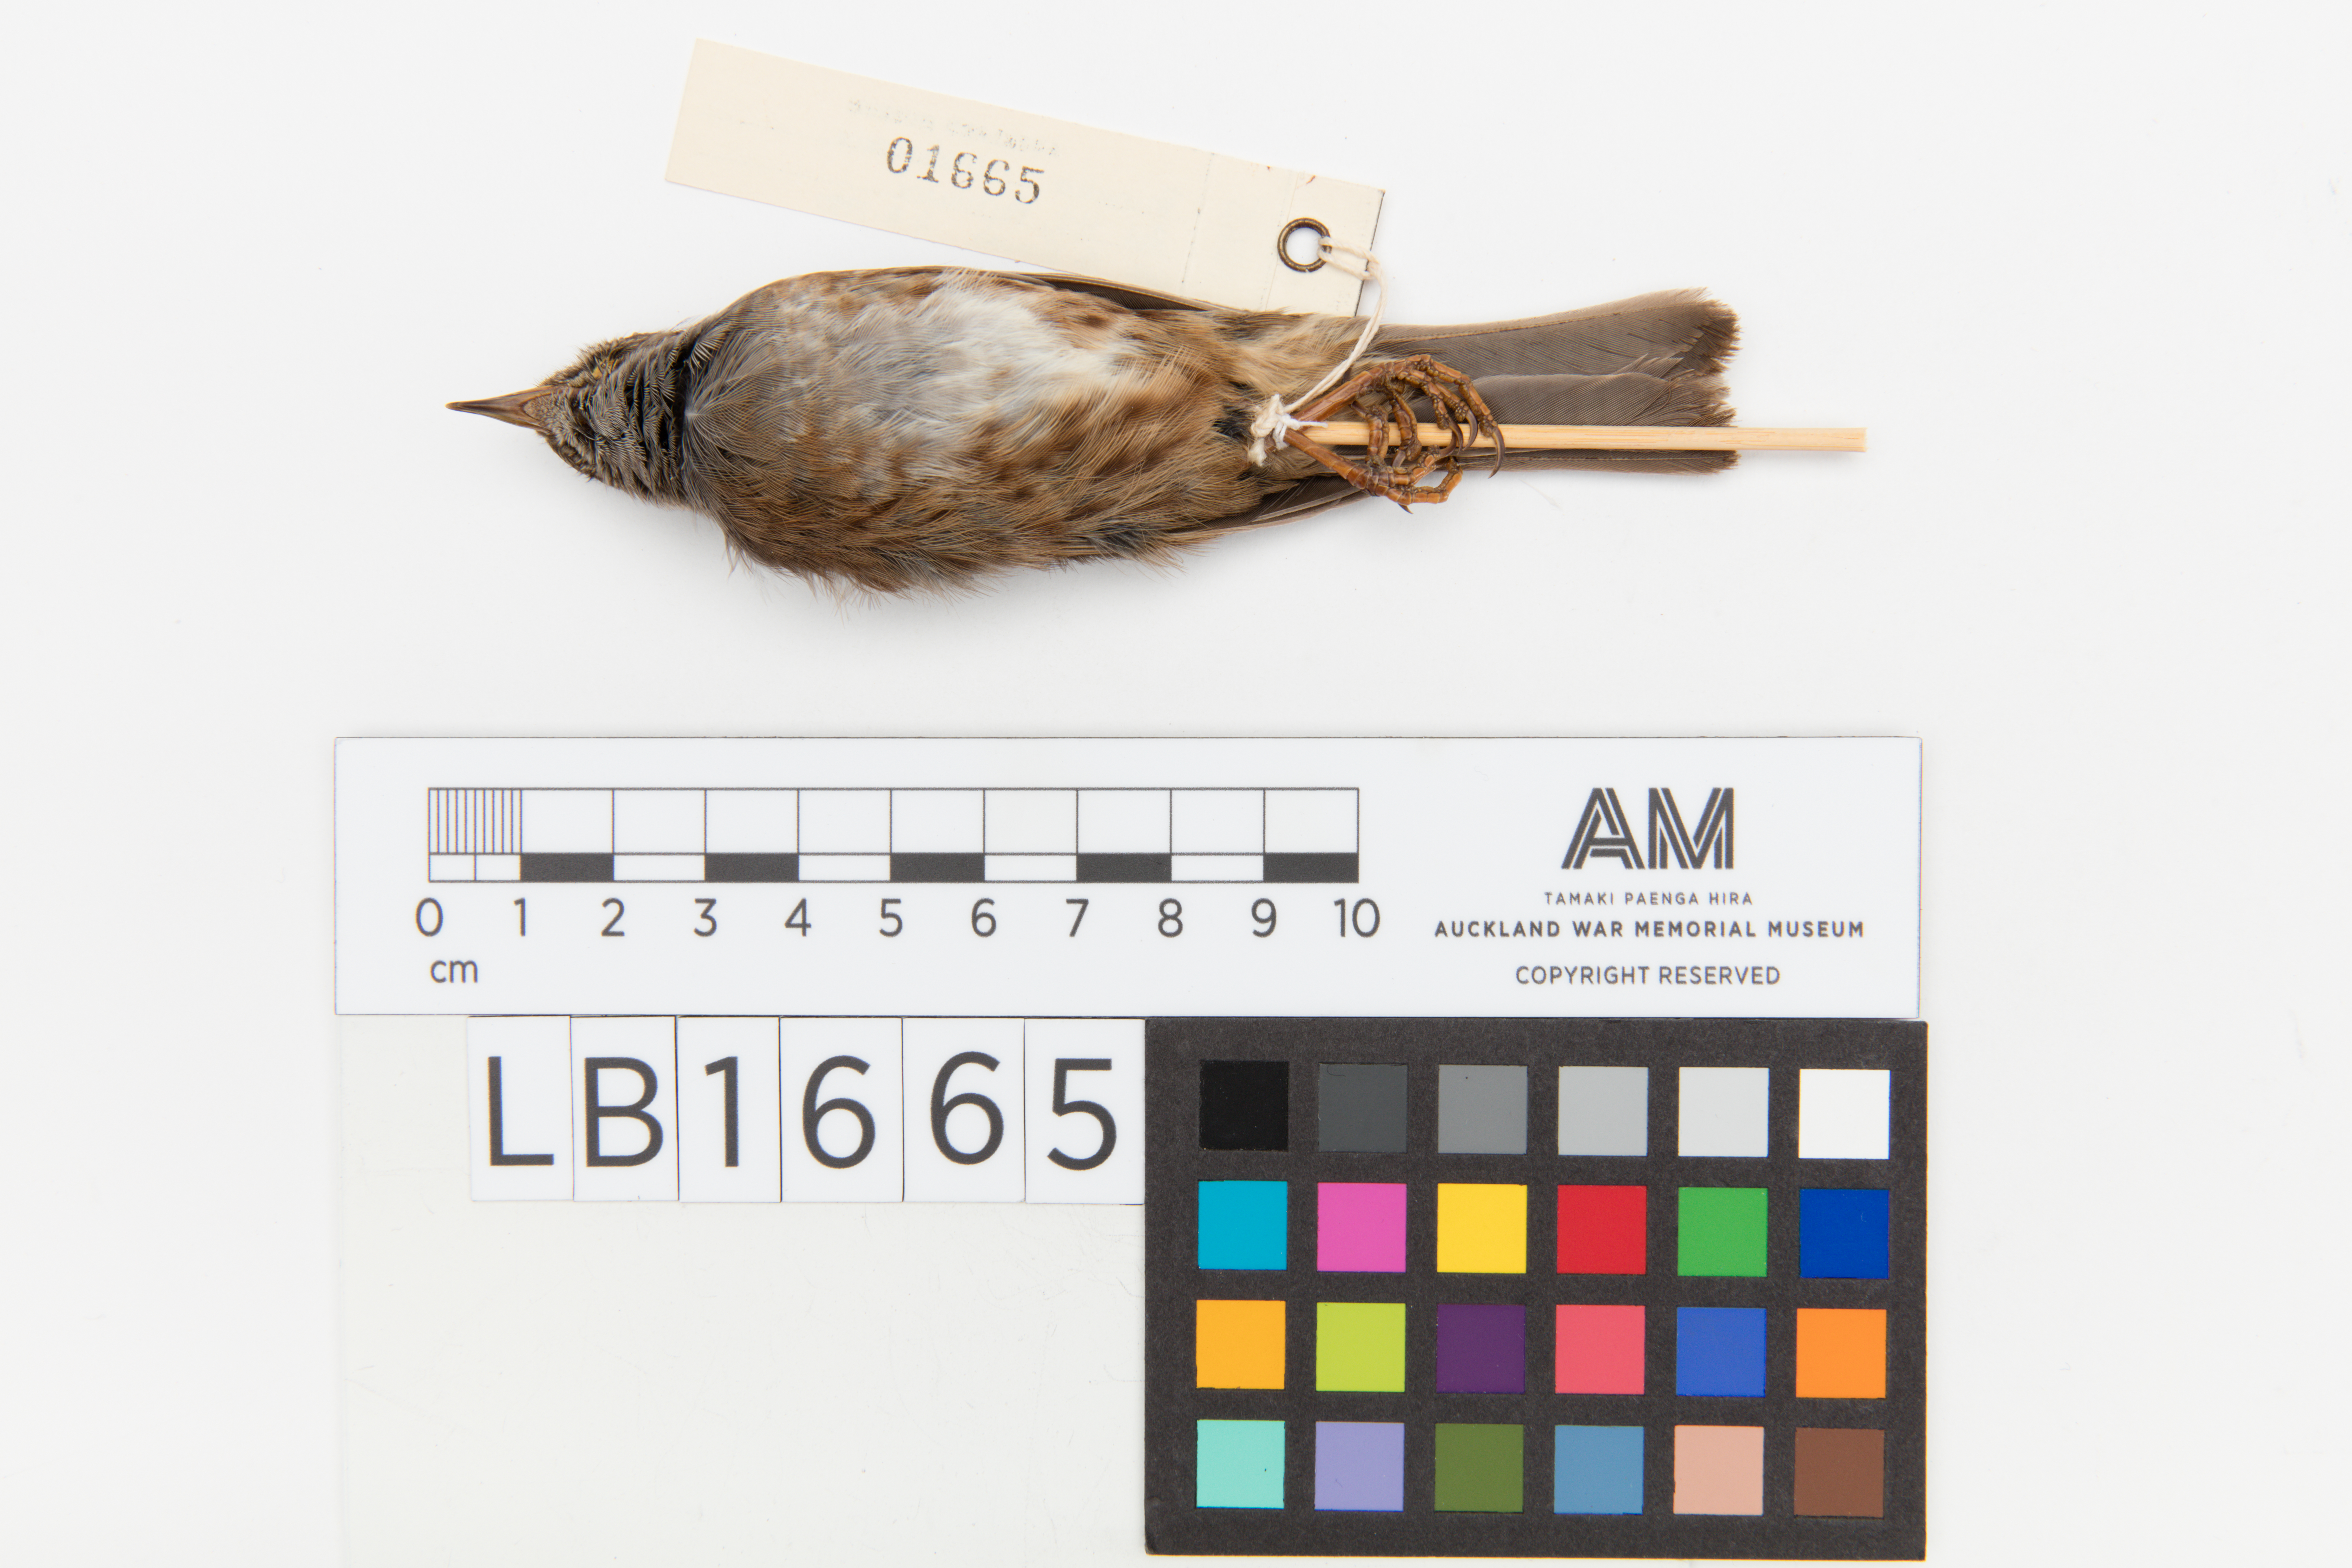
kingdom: Animalia
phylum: Chordata
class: Aves
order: Passeriformes
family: Prunellidae
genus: Prunella
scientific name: Prunella modularis
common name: Dunnock
